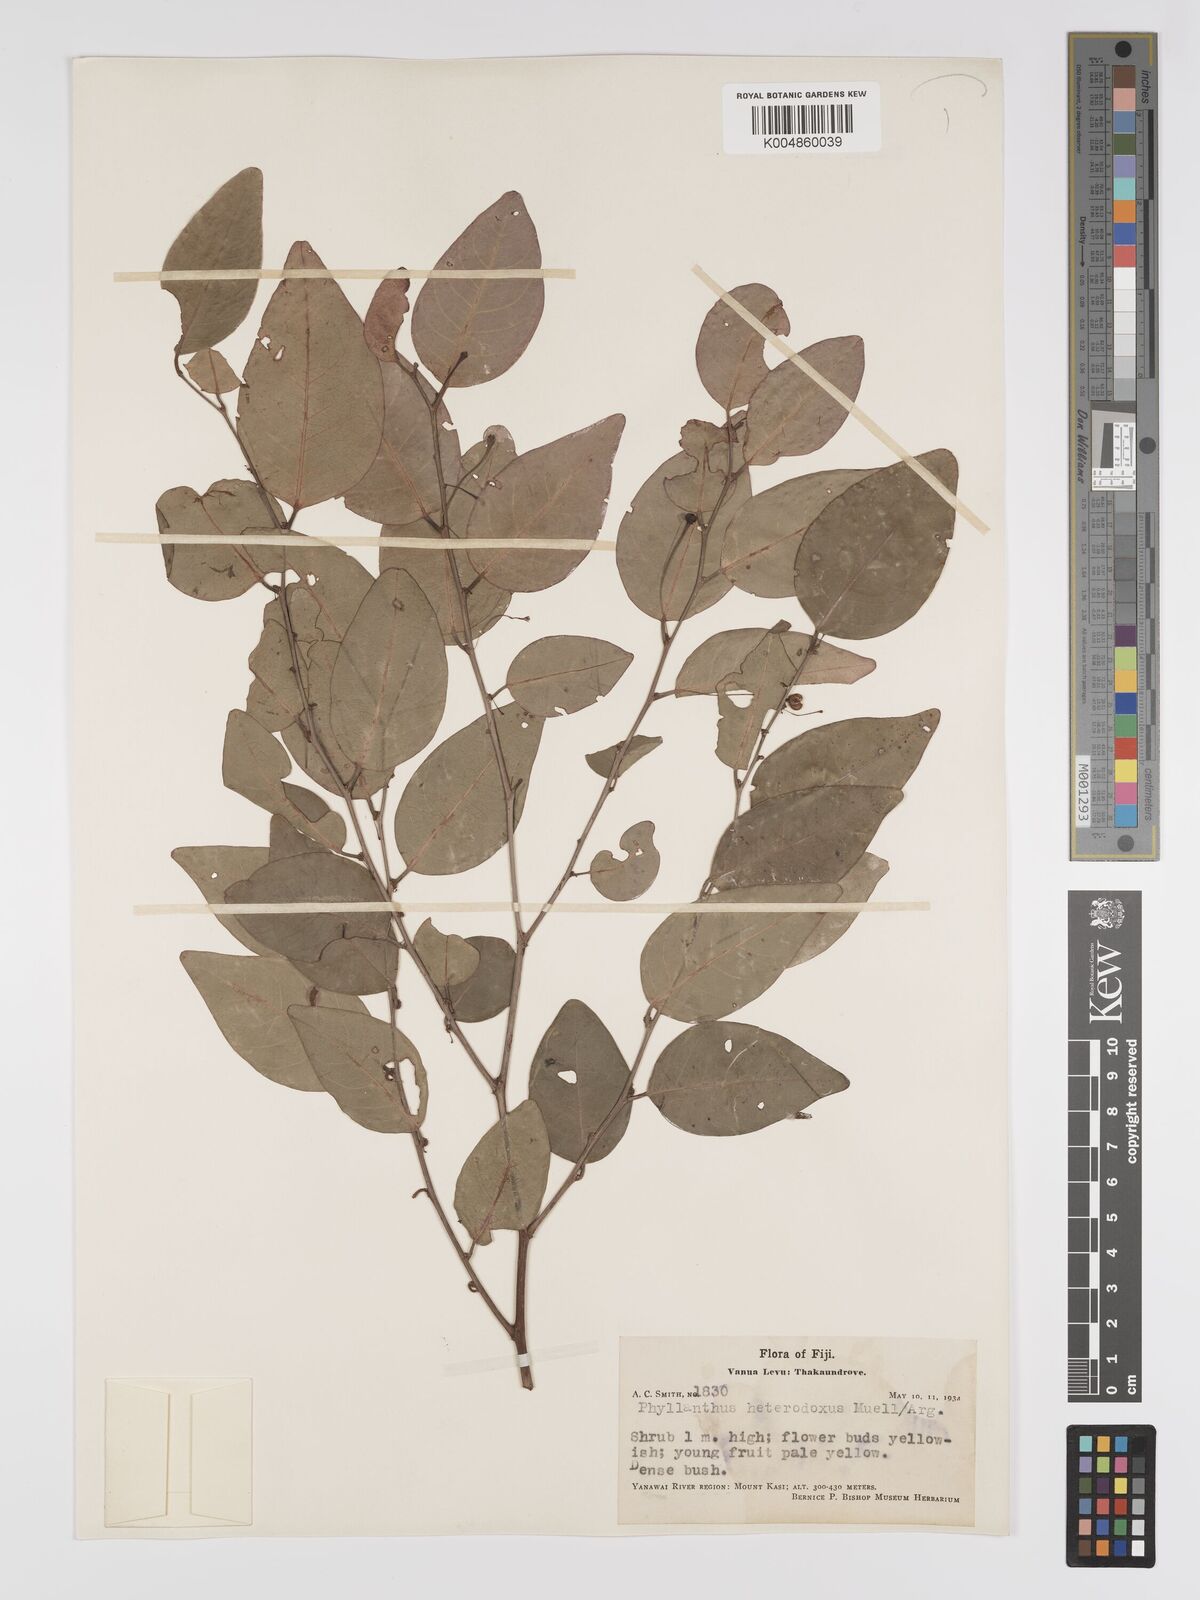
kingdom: Plantae
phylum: Tracheophyta
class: Magnoliopsida
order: Malpighiales
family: Phyllanthaceae
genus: Glochidion
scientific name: Glochidion heterodoxum
